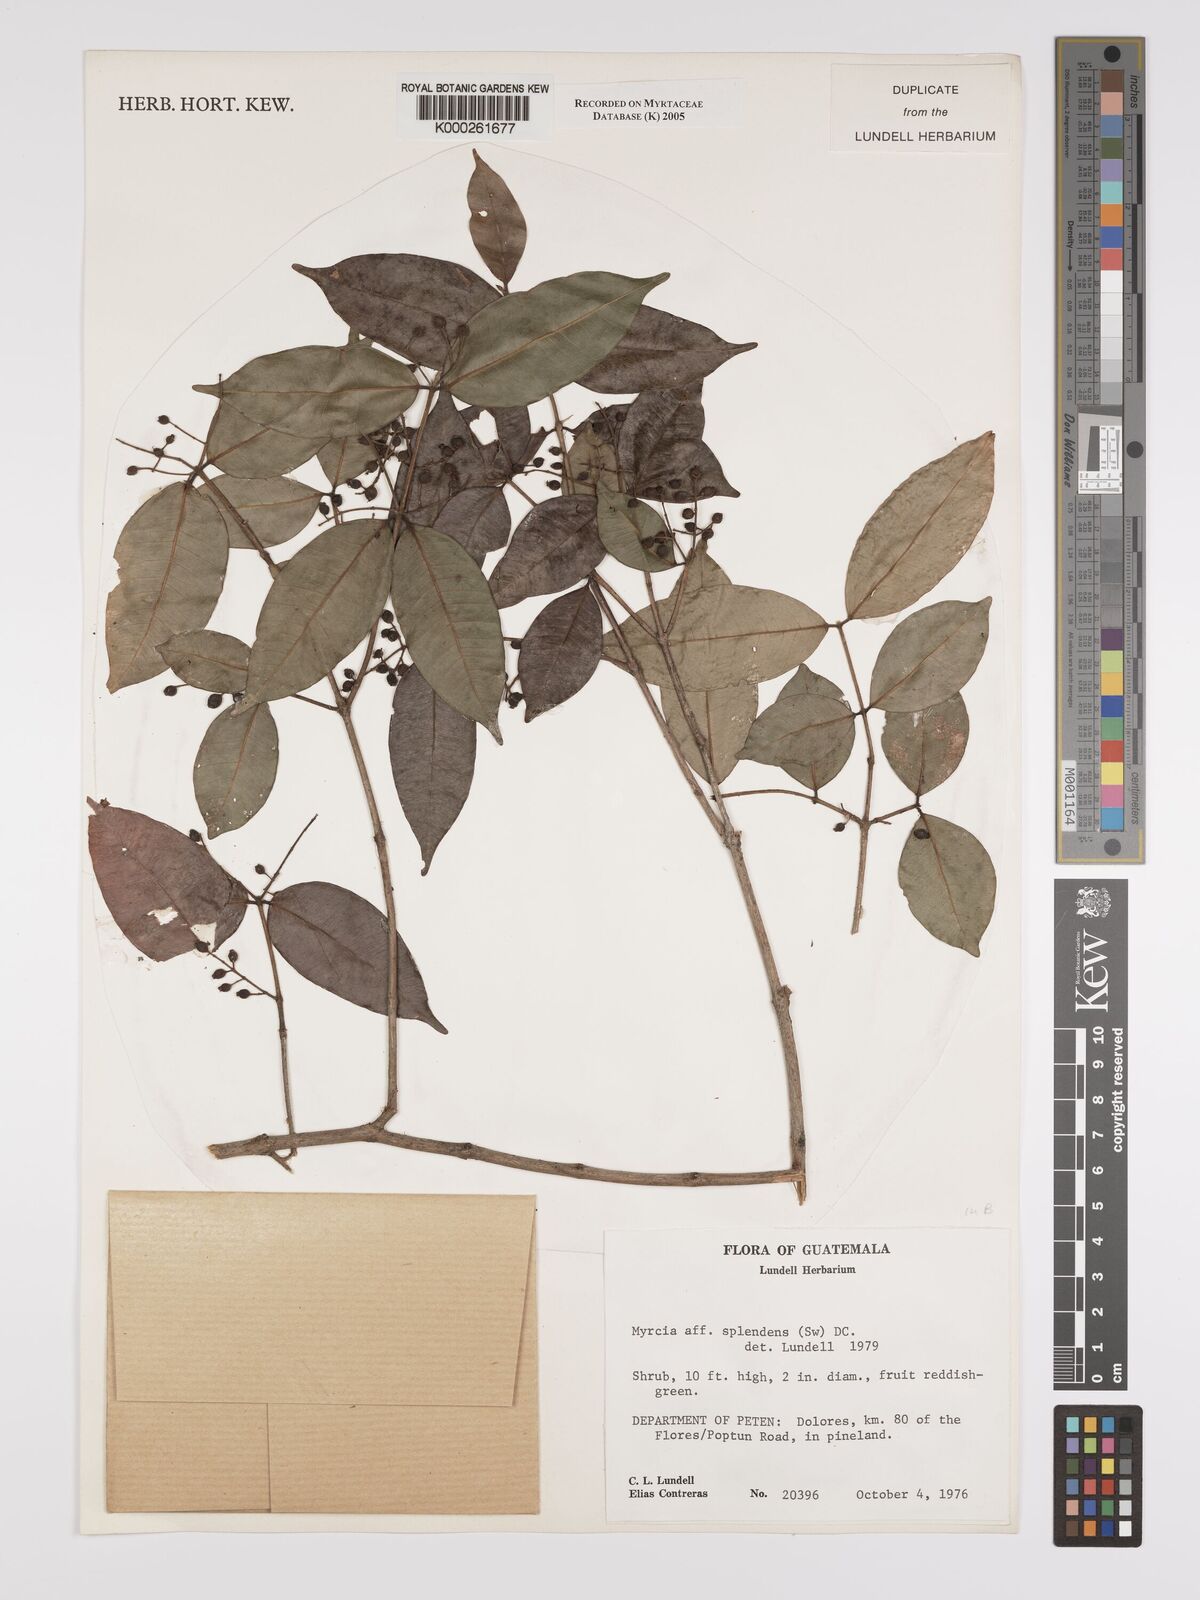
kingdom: Plantae
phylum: Tracheophyta
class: Magnoliopsida
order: Myrtales
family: Myrtaceae
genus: Myrcia
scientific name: Myrcia splendens
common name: Surinam cherry
